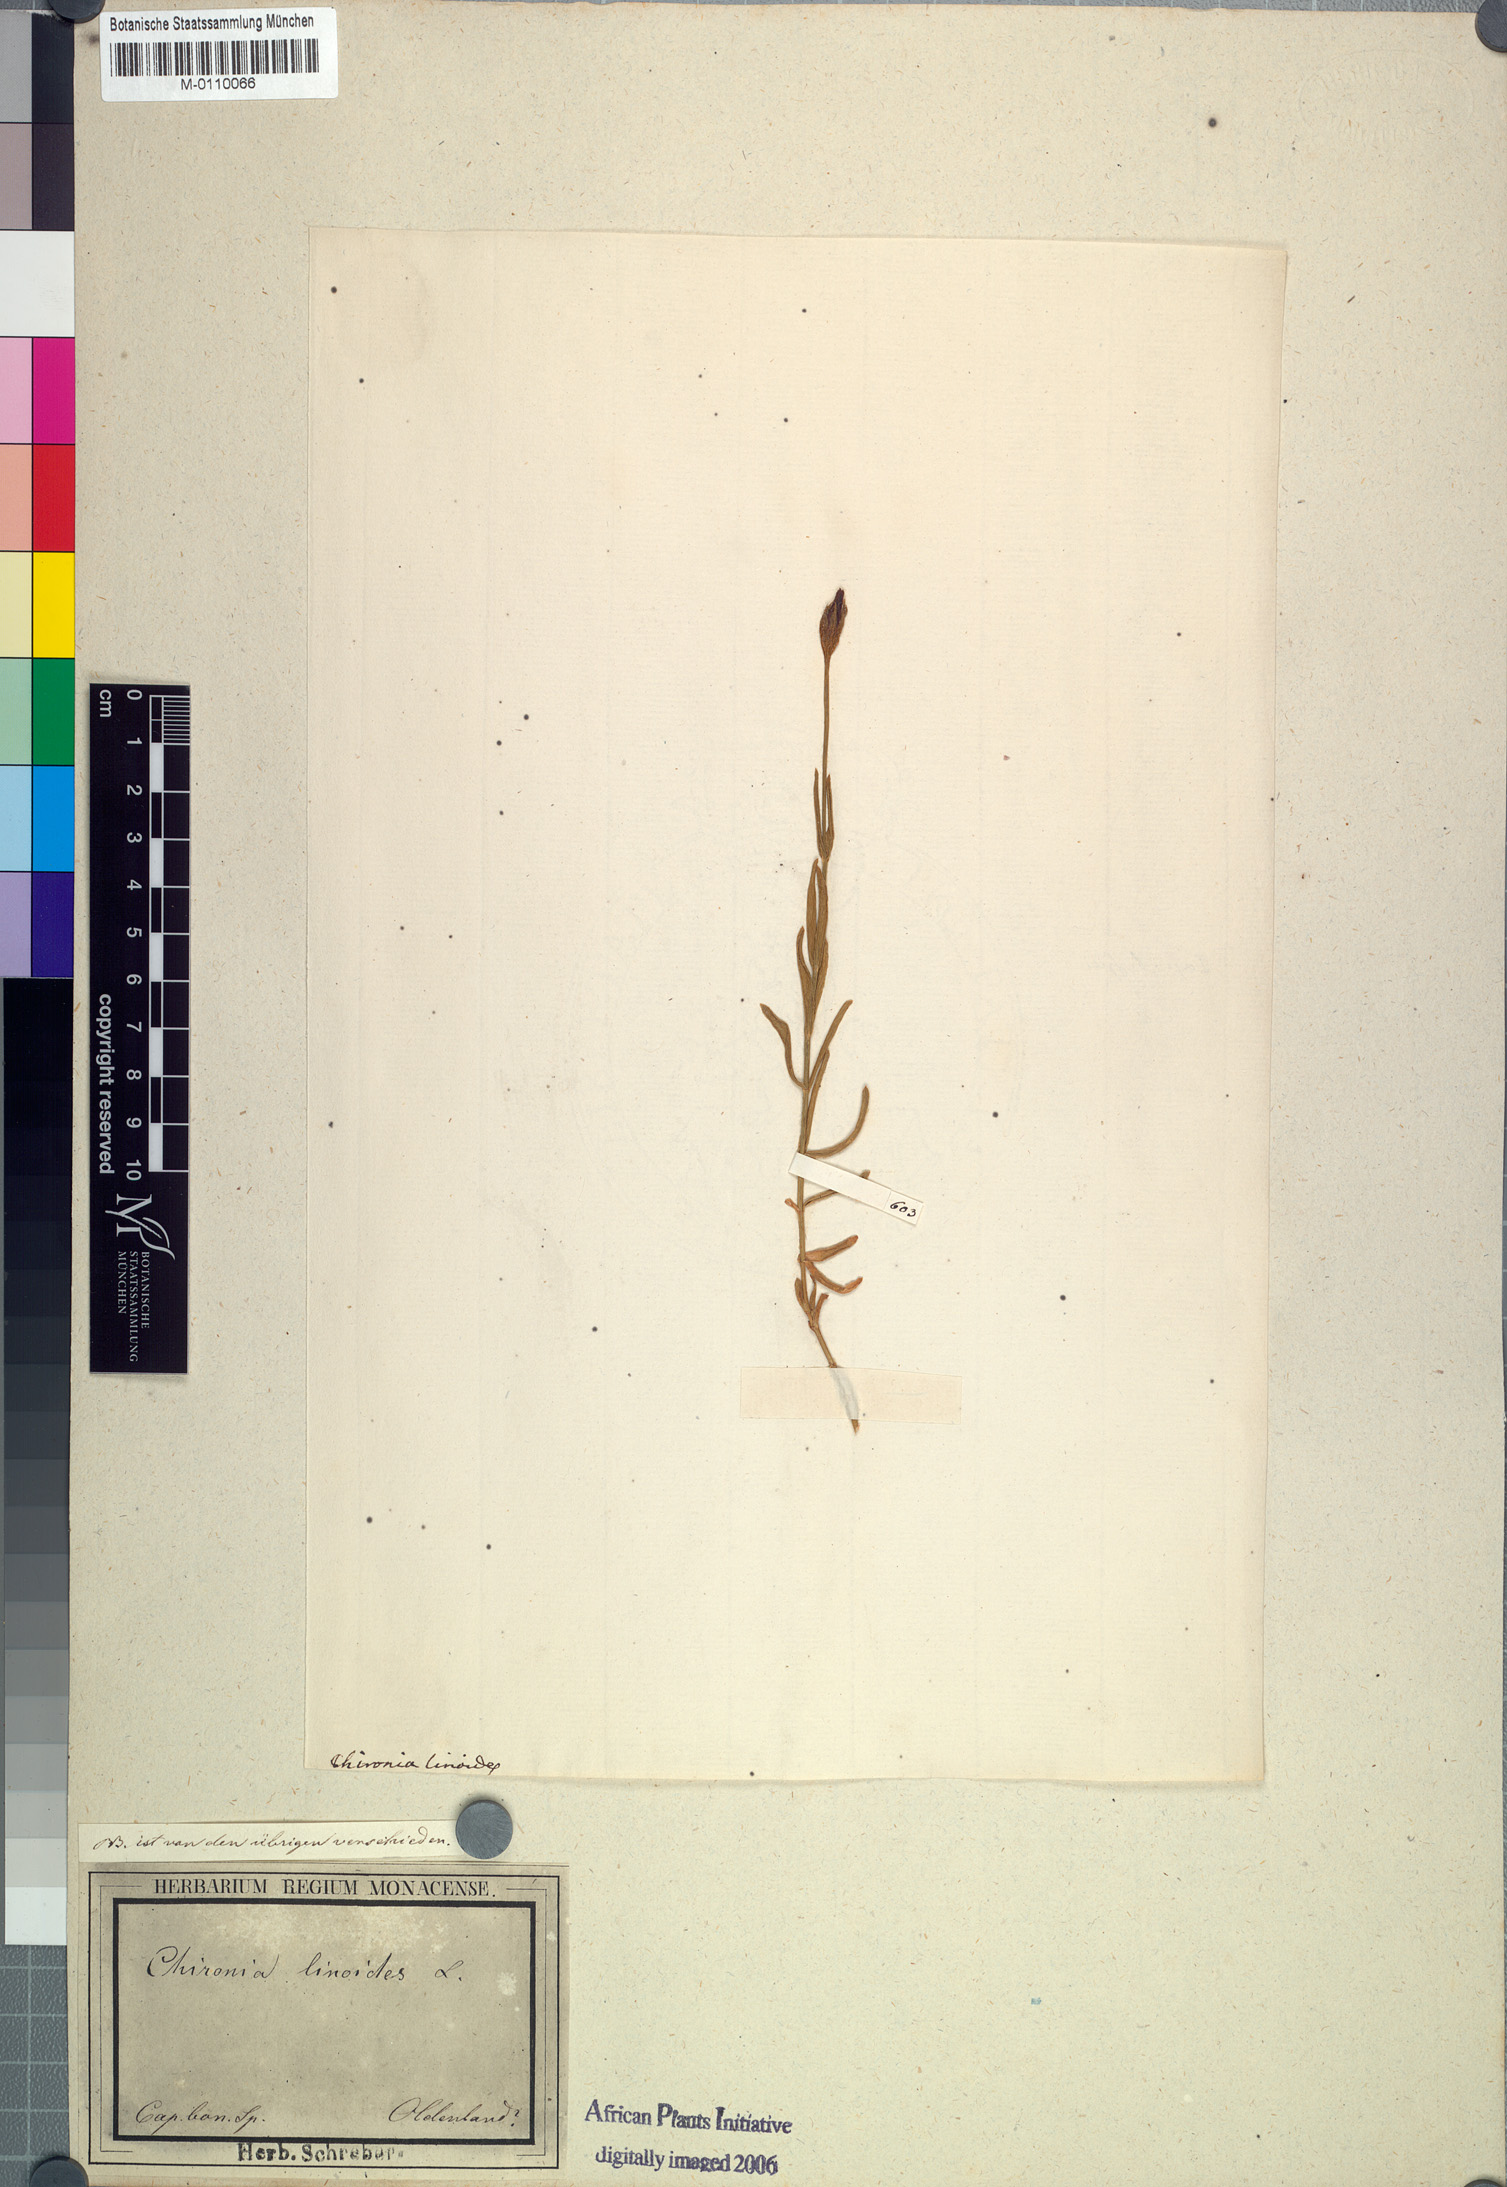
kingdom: Plantae
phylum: Tracheophyta
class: Magnoliopsida
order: Gentianales
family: Gentianaceae
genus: Chironia
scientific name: Chironia linoides
